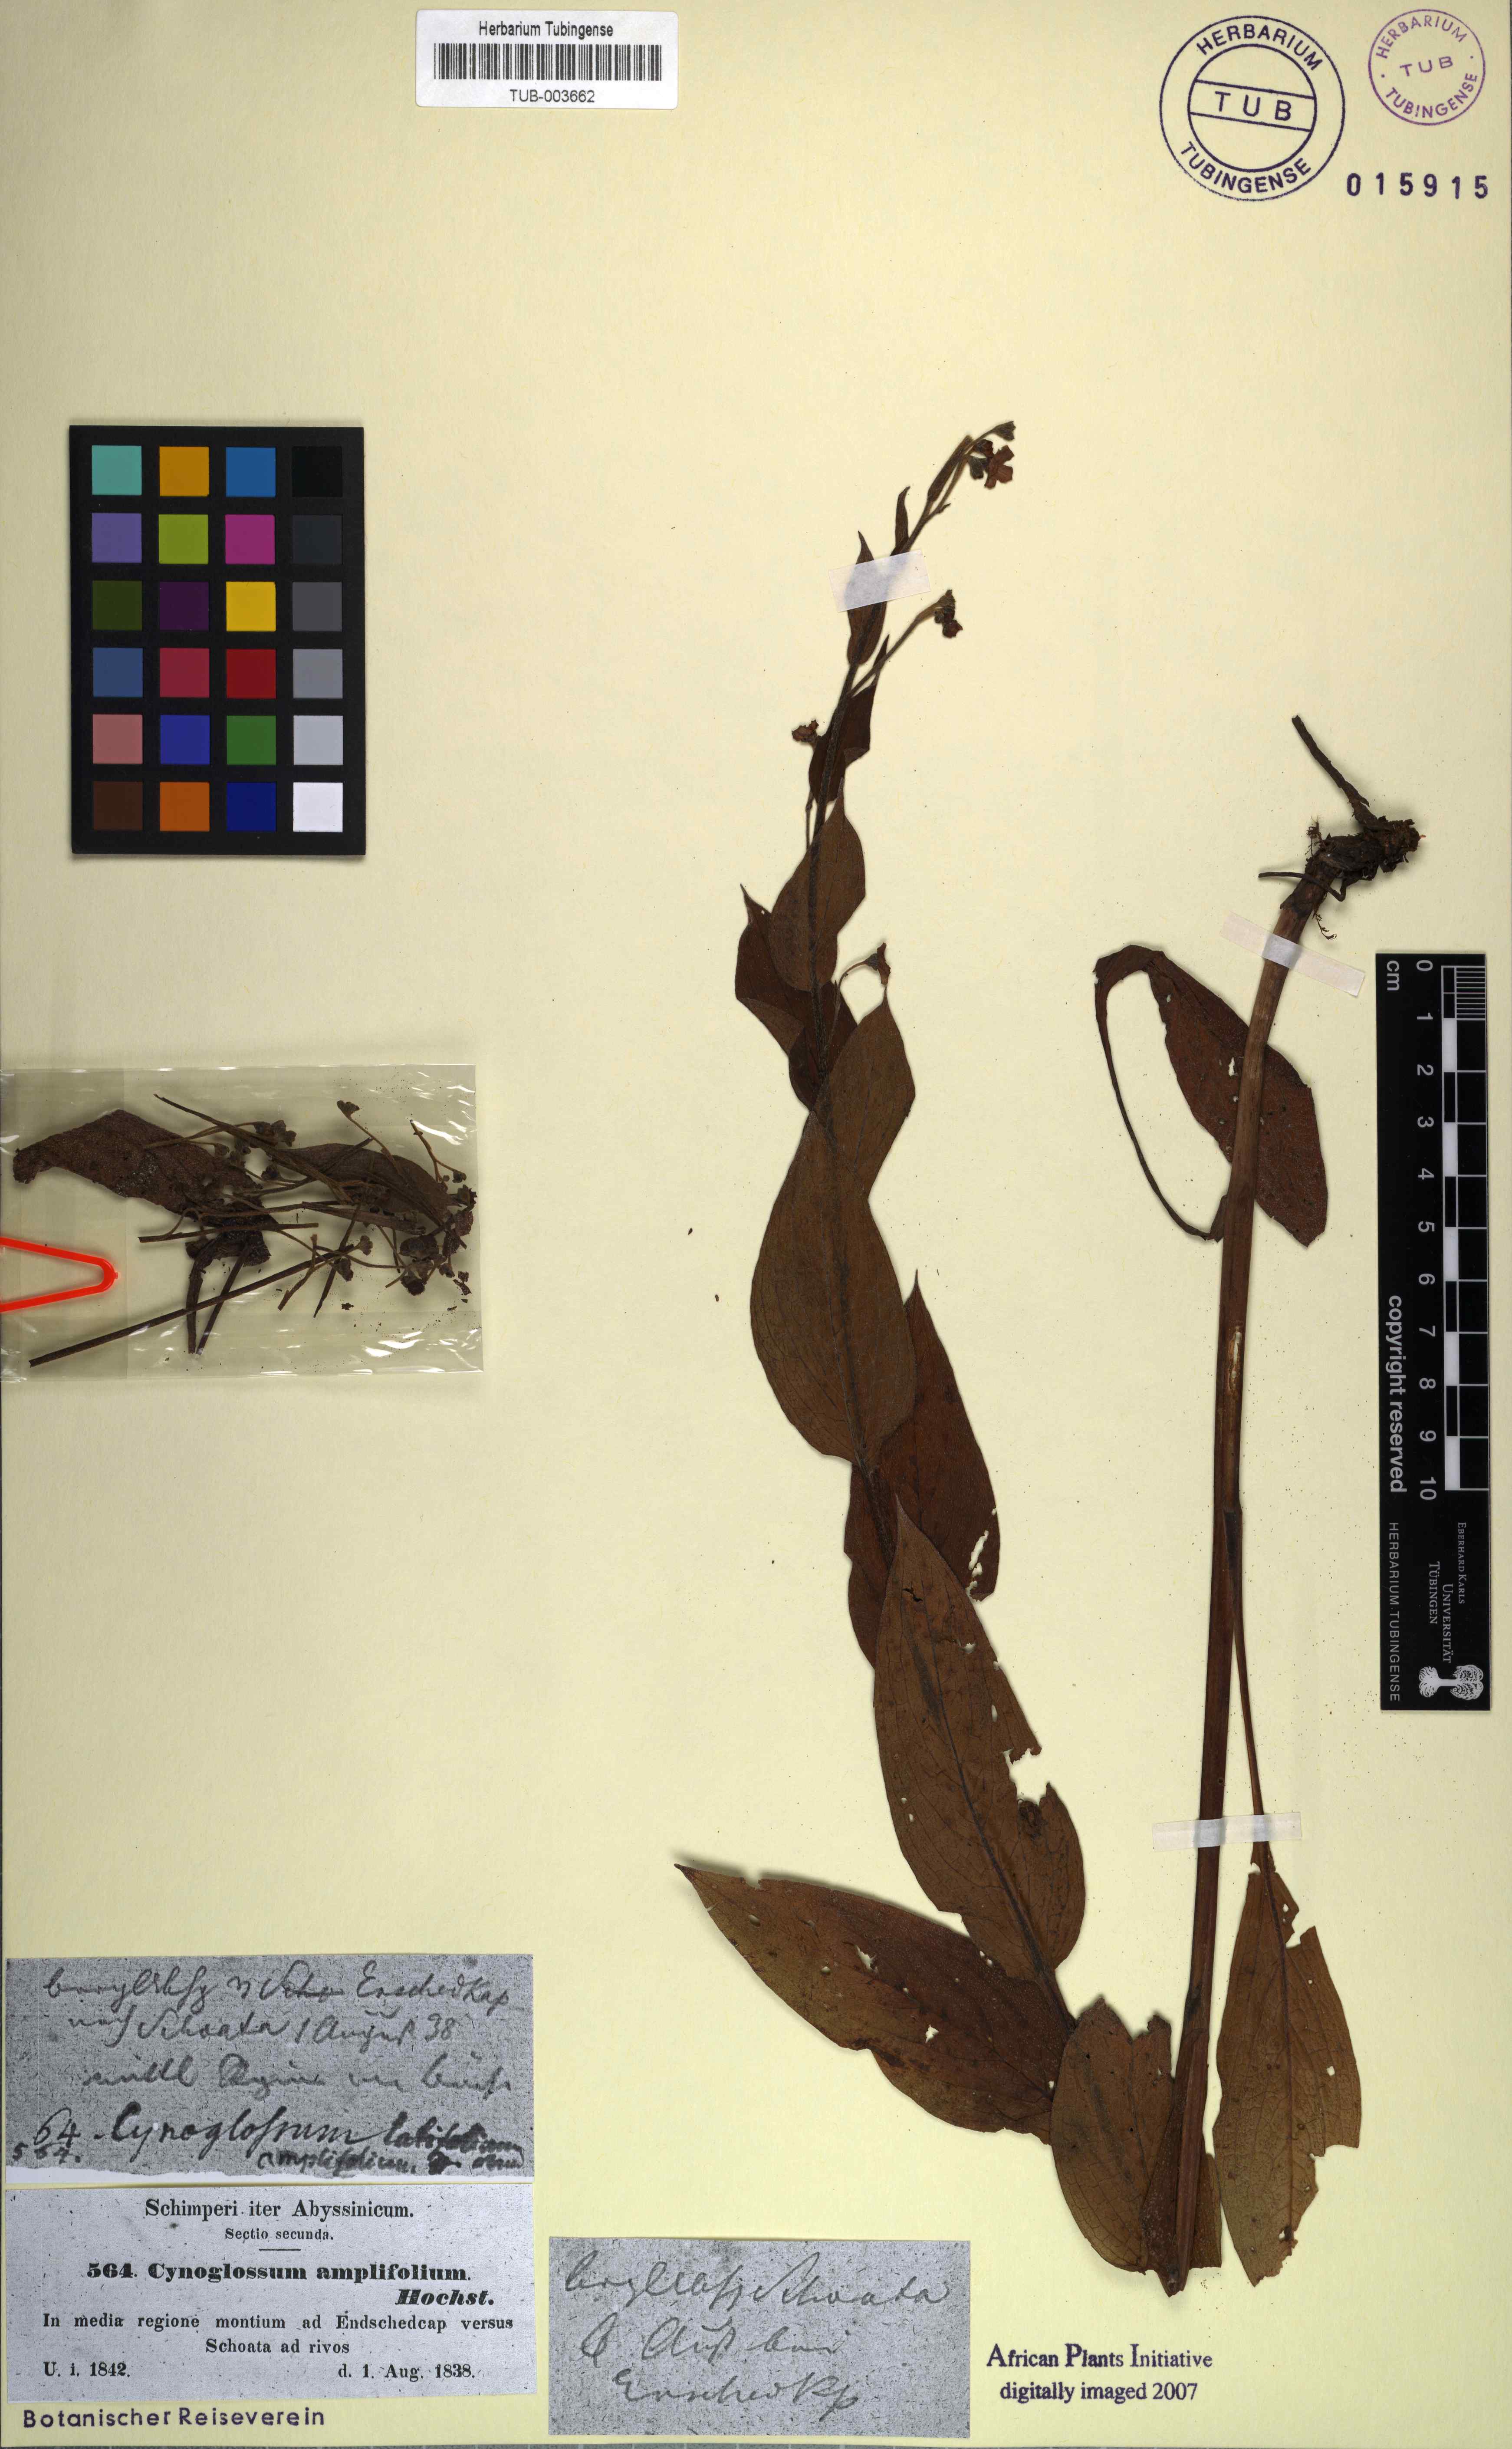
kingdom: Plantae
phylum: Tracheophyta
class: Magnoliopsida
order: Boraginales
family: Boraginaceae
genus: Cynoglossum
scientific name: Cynoglossum amplifolium
